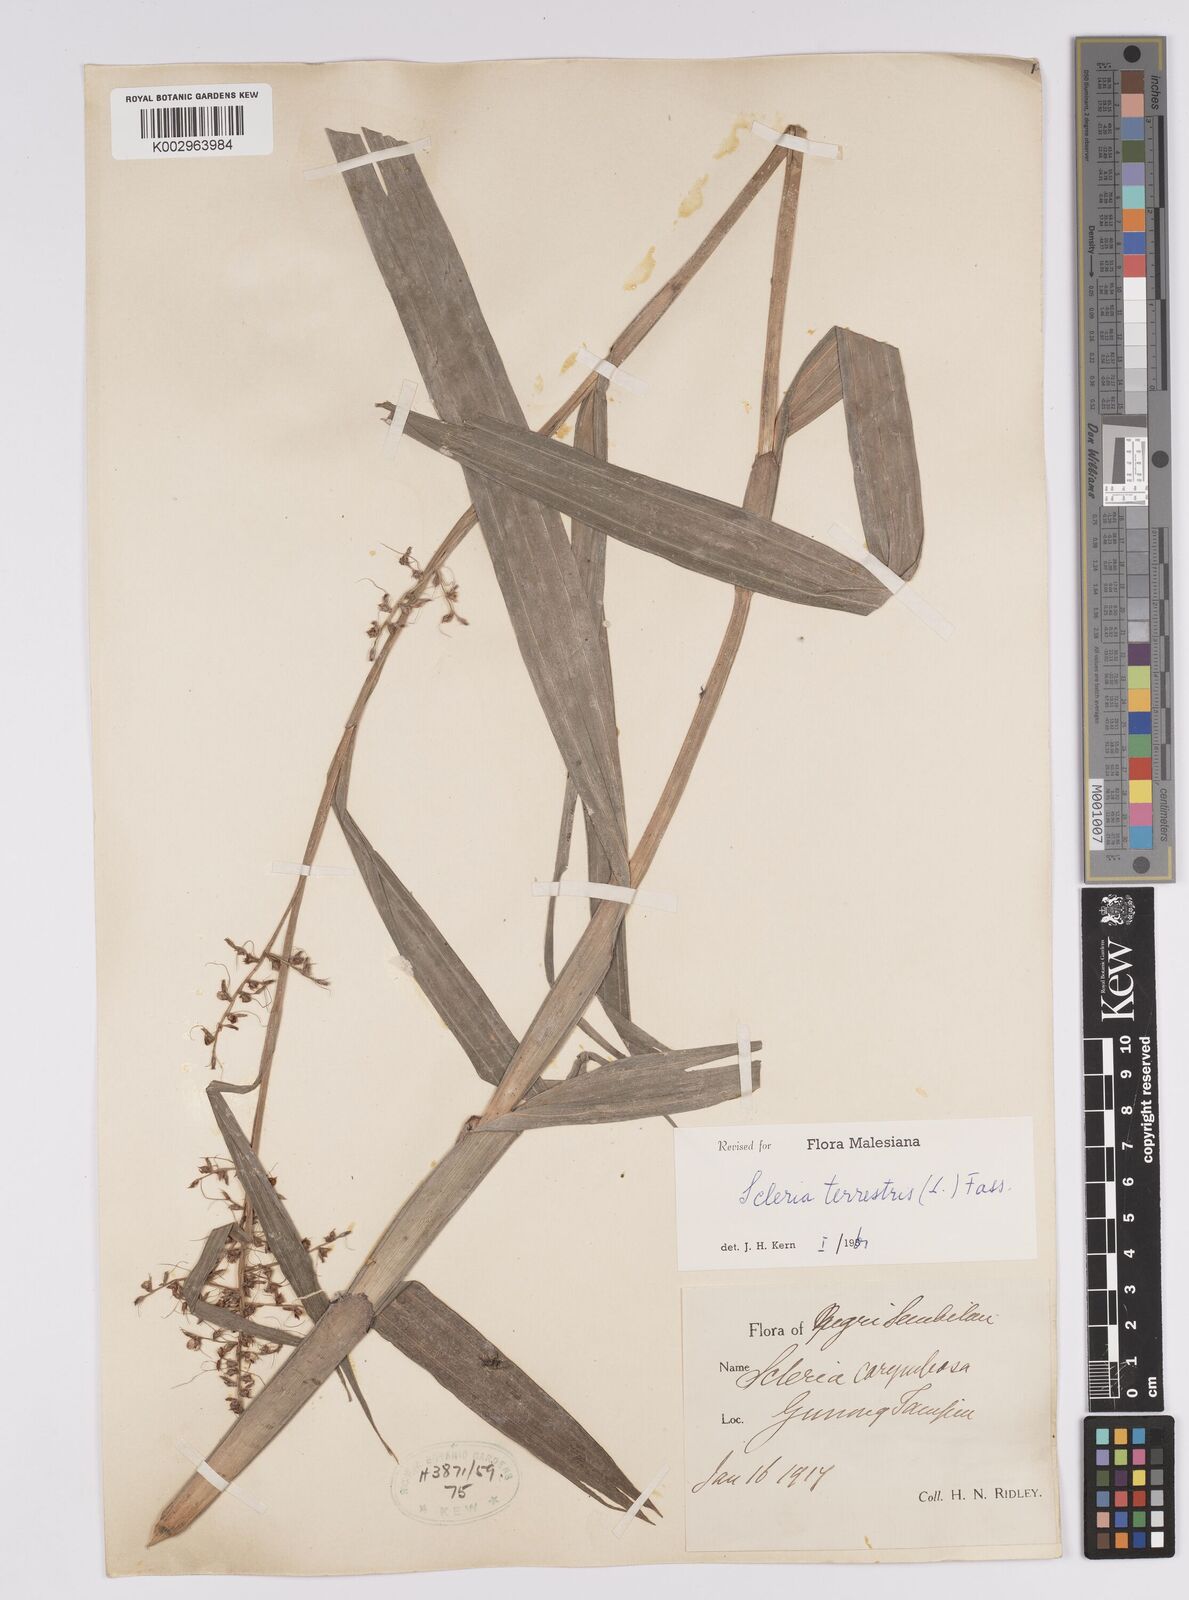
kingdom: Plantae
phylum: Tracheophyta
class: Liliopsida
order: Poales
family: Cyperaceae
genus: Scleria
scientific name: Scleria terrestris
